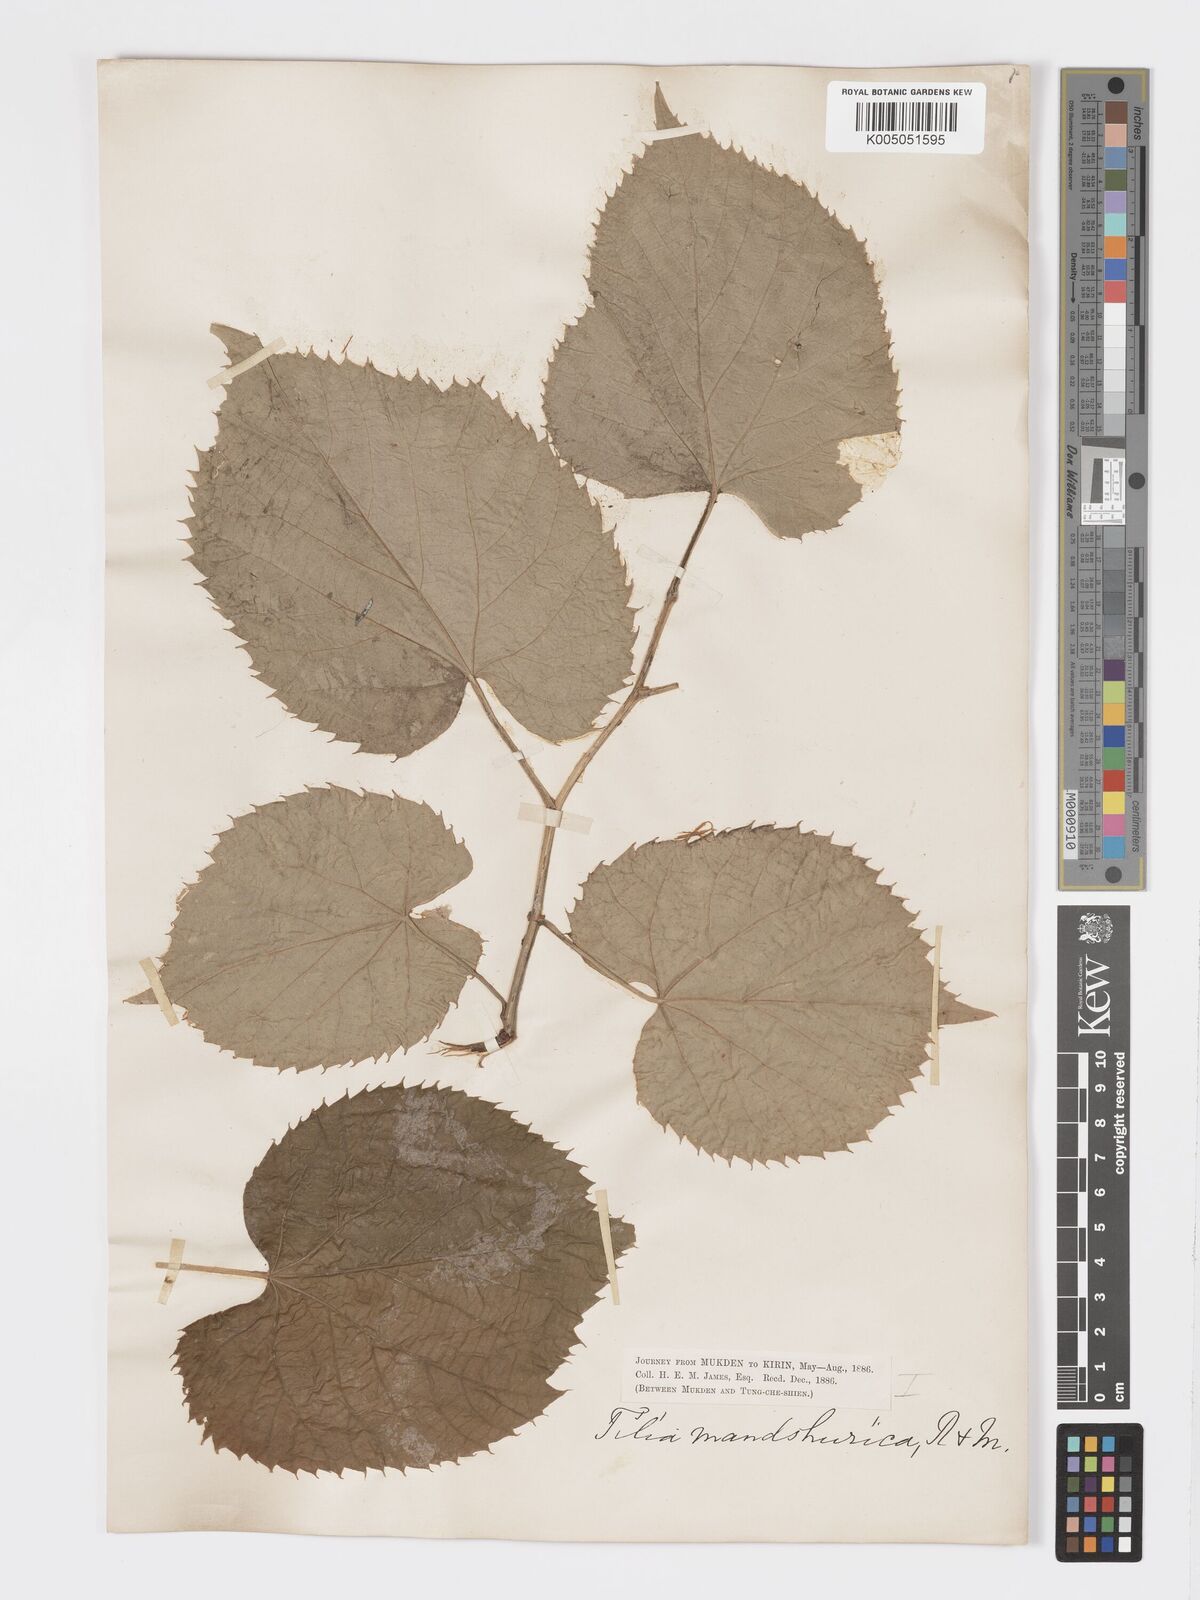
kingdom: Plantae
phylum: Tracheophyta
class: Magnoliopsida
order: Malvales
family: Malvaceae
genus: Tilia
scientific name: Tilia mandshurica
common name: Manchurian linden
